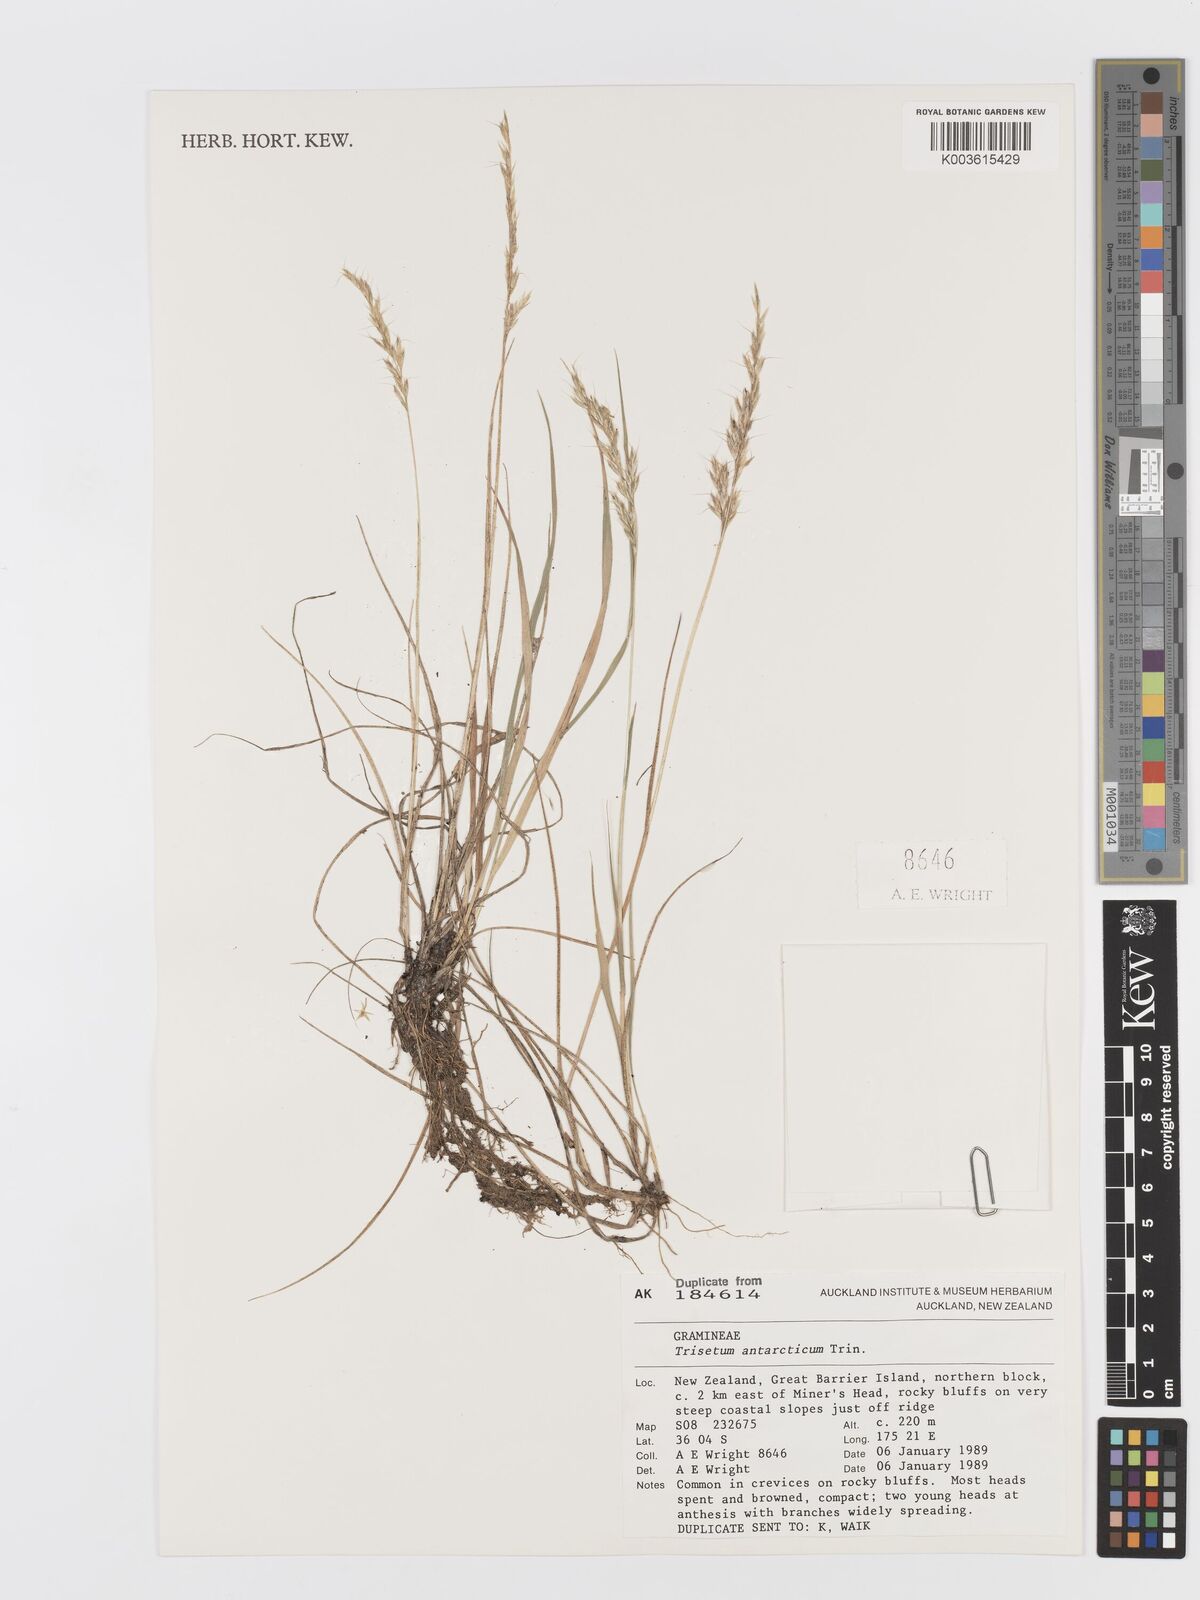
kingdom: Plantae
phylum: Tracheophyta
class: Liliopsida
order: Poales
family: Poaceae
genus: Koeleria
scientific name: Koeleria antarctica
